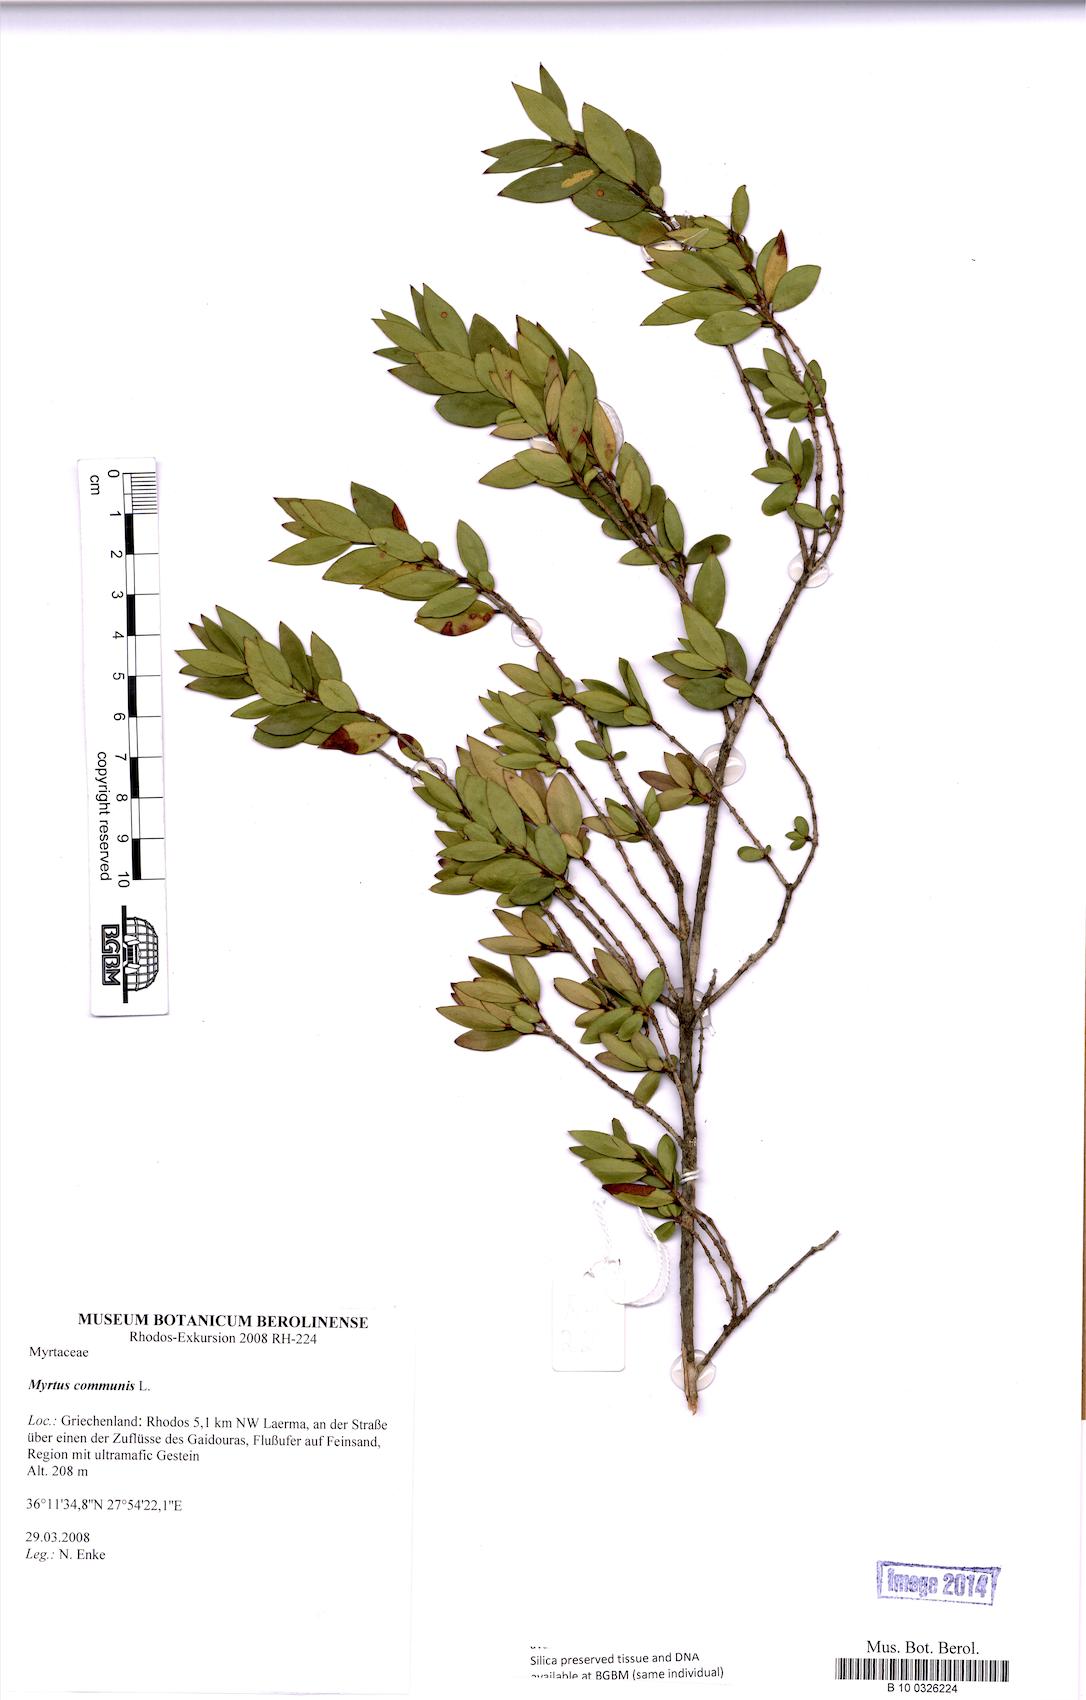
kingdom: Plantae
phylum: Tracheophyta
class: Magnoliopsida
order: Myrtales
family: Myrtaceae
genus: Myrtus
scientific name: Myrtus communis
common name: Myrtle
